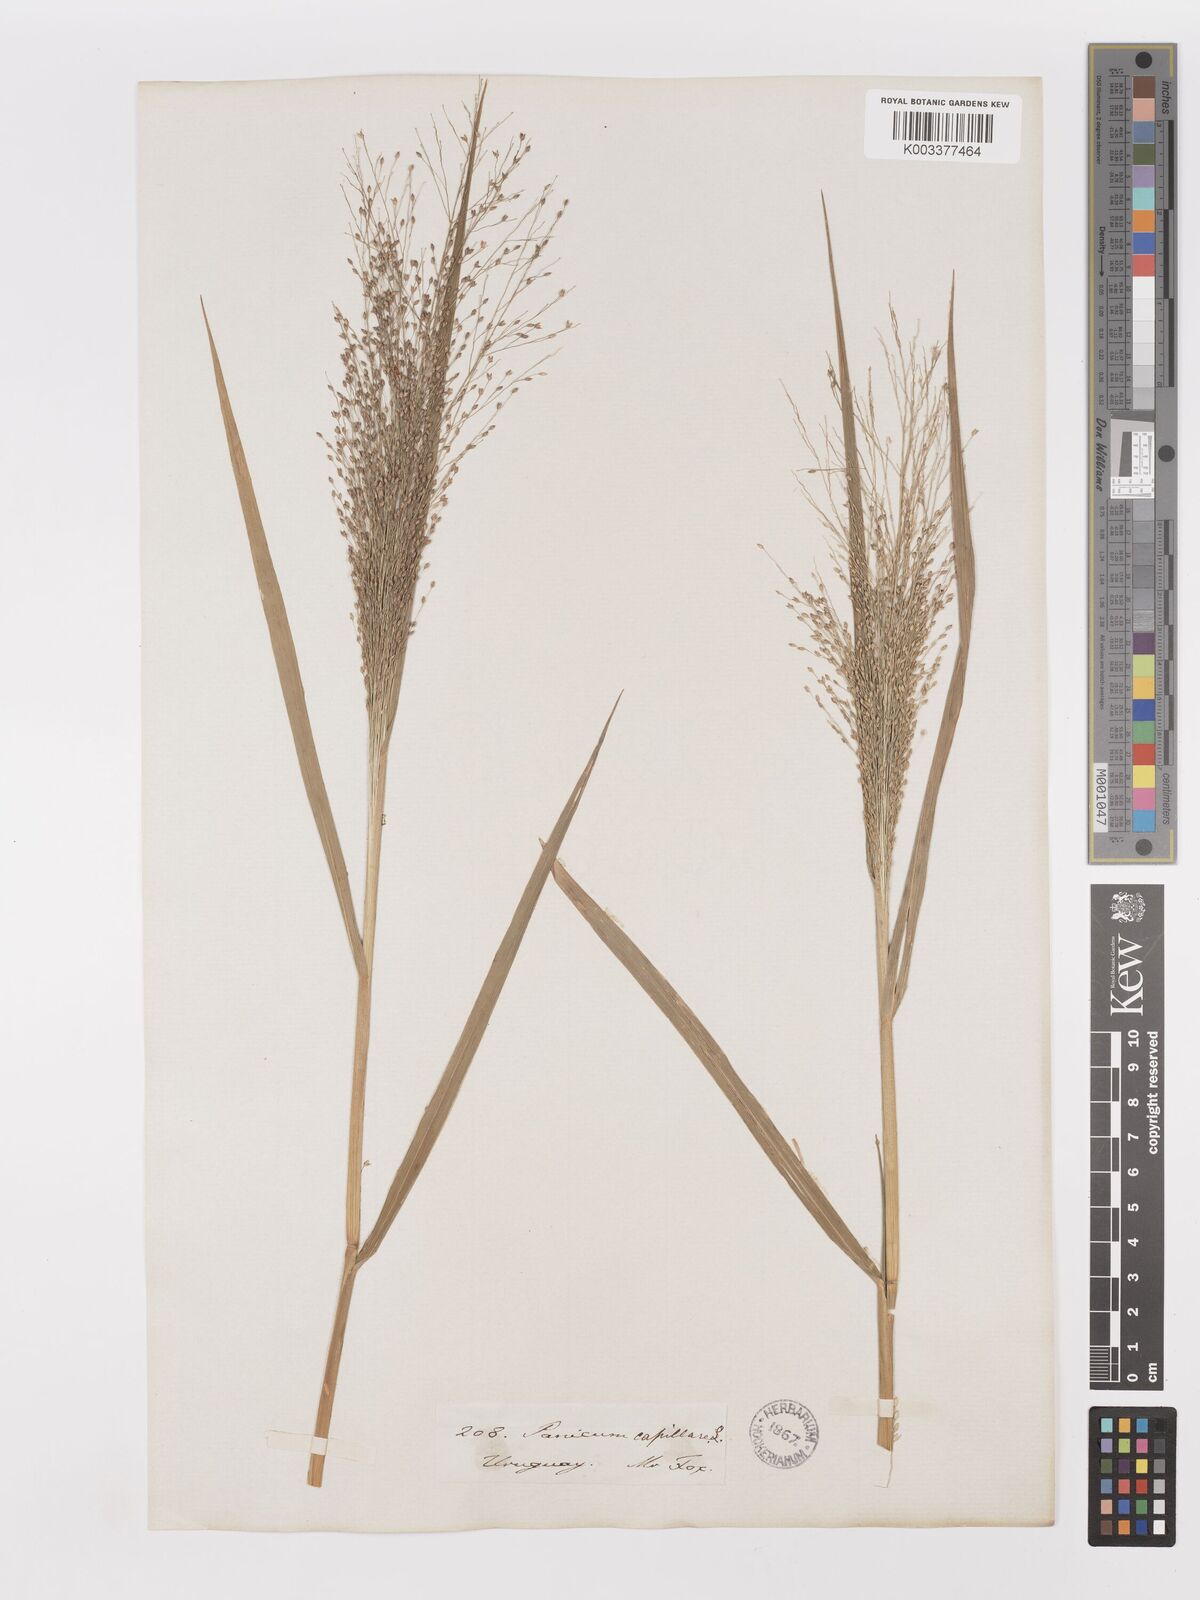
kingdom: Plantae
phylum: Tracheophyta
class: Liliopsida
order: Poales
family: Poaceae
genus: Panicum
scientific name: Panicum bergii
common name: Berg's panicgrass
